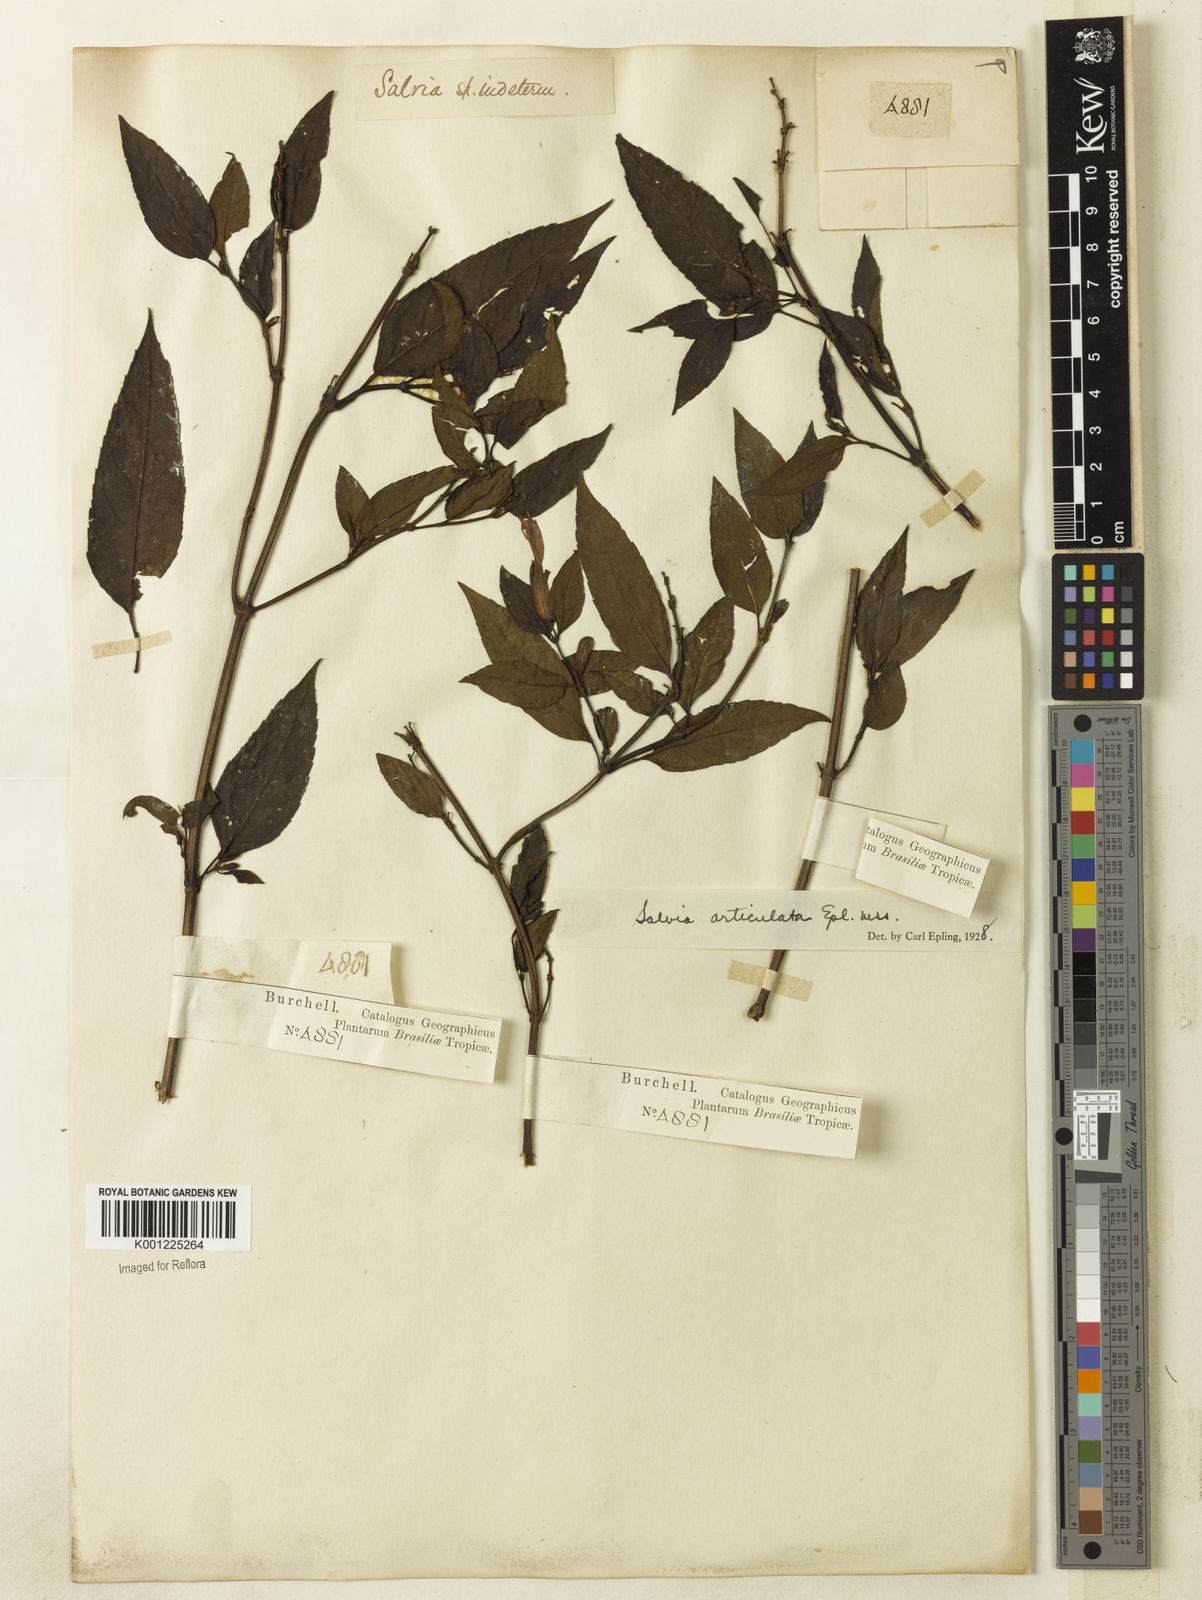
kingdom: Plantae
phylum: Tracheophyta
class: Magnoliopsida
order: Lamiales
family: Lamiaceae
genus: Salvia
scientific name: Salvia articulata
